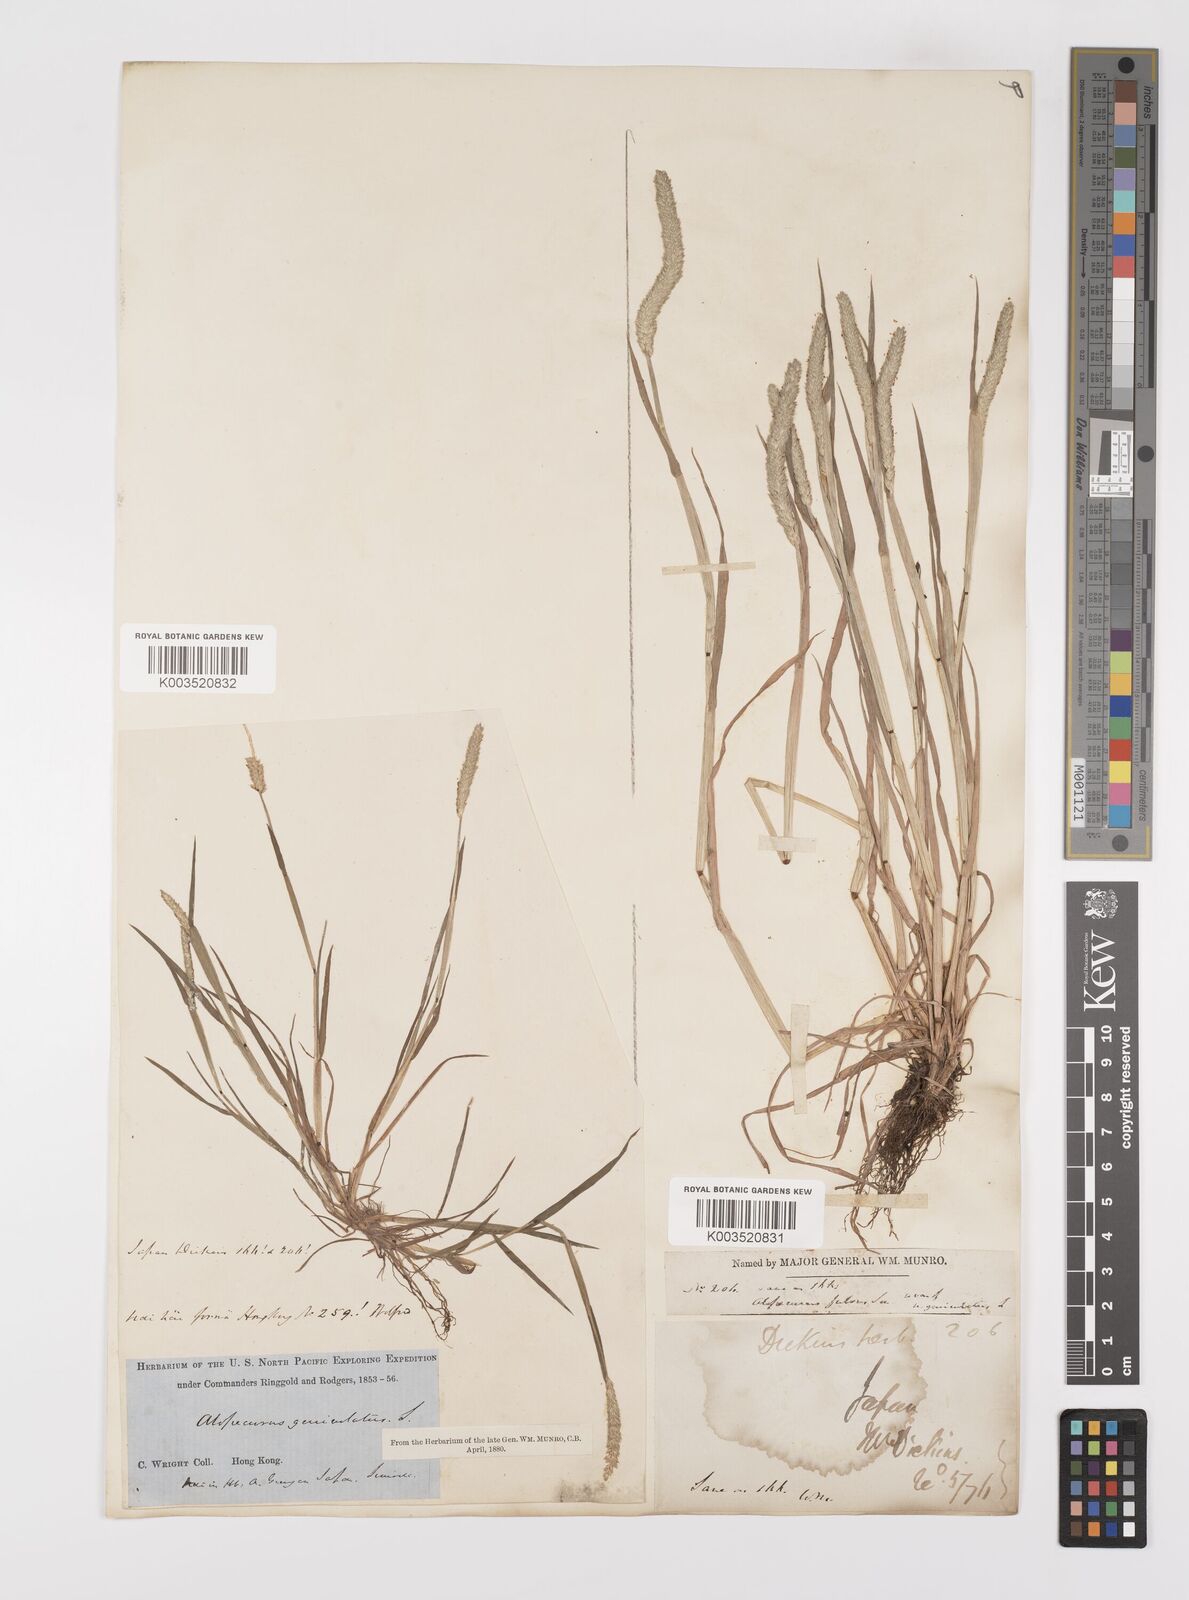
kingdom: Plantae
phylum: Tracheophyta
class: Liliopsida
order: Poales
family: Poaceae
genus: Alopecurus
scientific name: Alopecurus aequalis
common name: Orange foxtail
